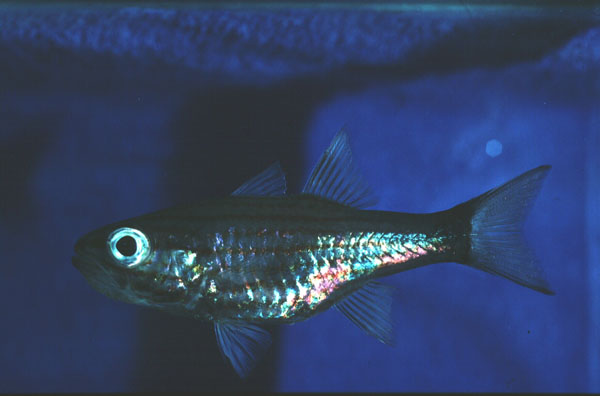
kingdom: Animalia
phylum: Chordata
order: Perciformes
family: Apogonidae
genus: Cheilodipterus
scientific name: Cheilodipterus artus
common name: Wolf cardinal
